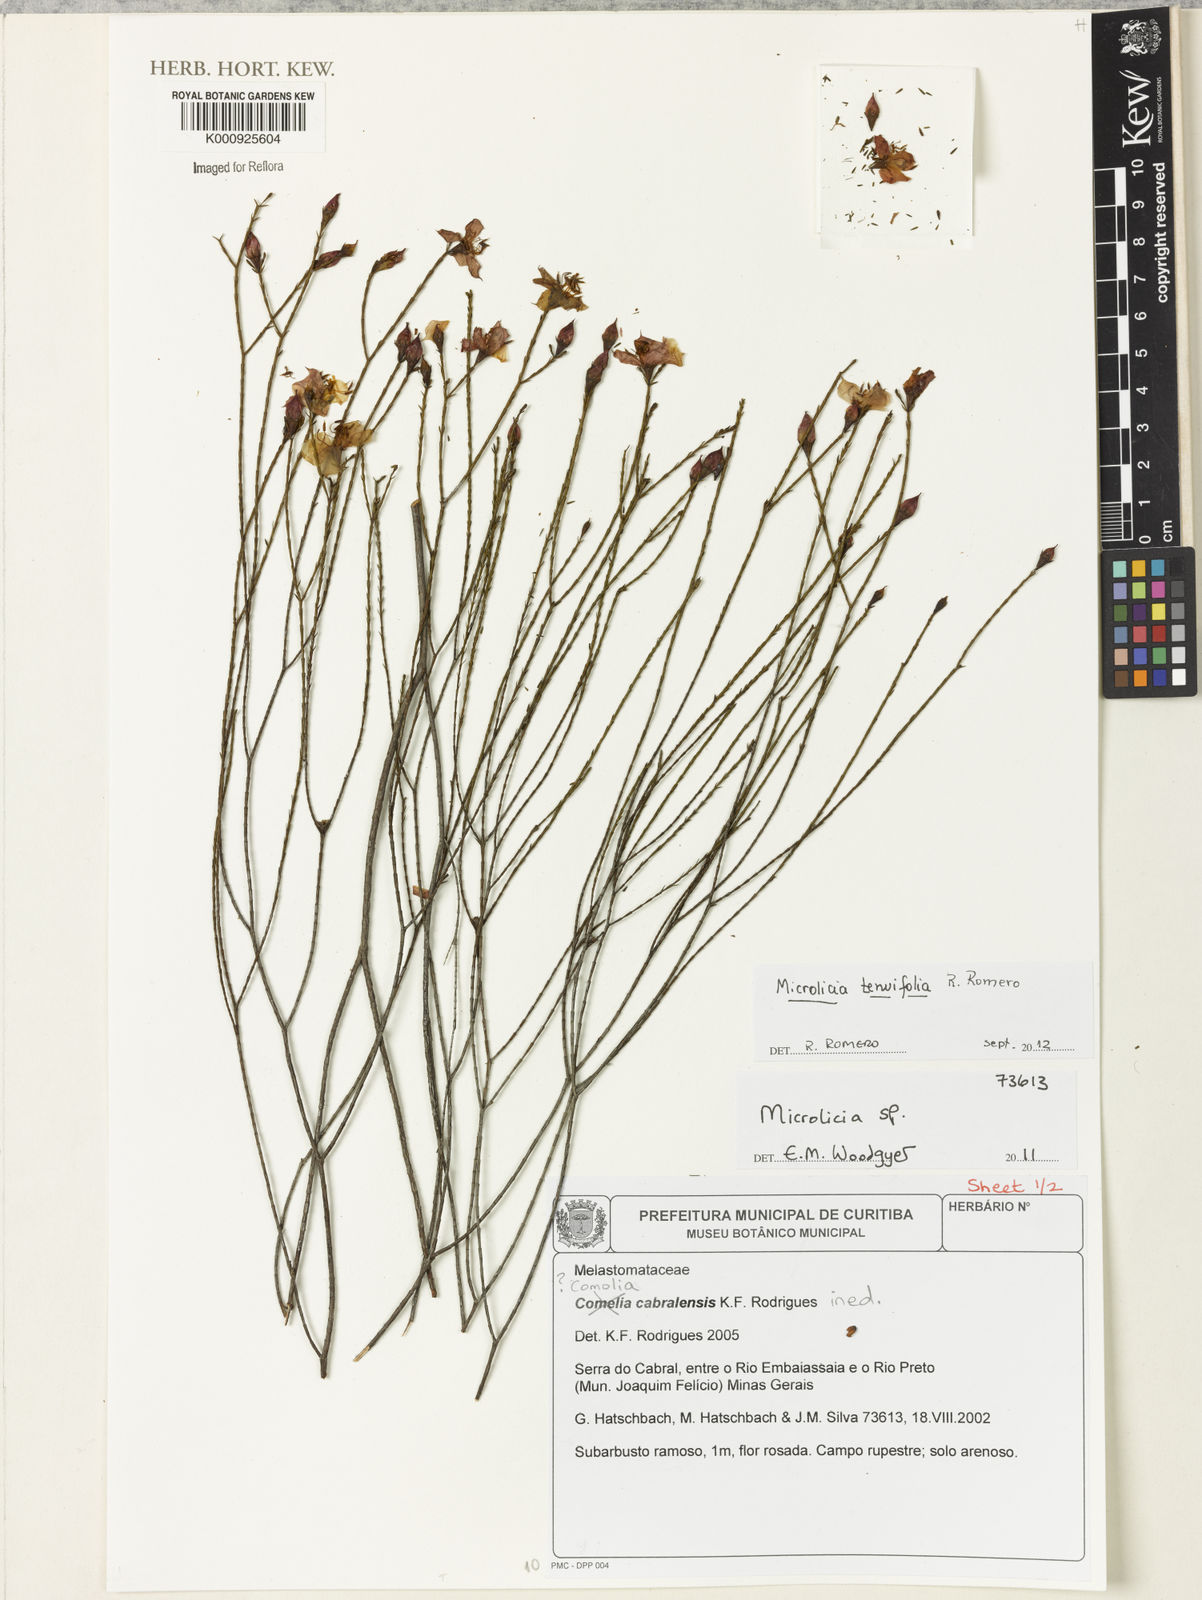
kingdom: Plantae
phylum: Tracheophyta
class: Magnoliopsida
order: Myrtales
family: Melastomataceae
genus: Microlicia
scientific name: Microlicia tenuifolia
